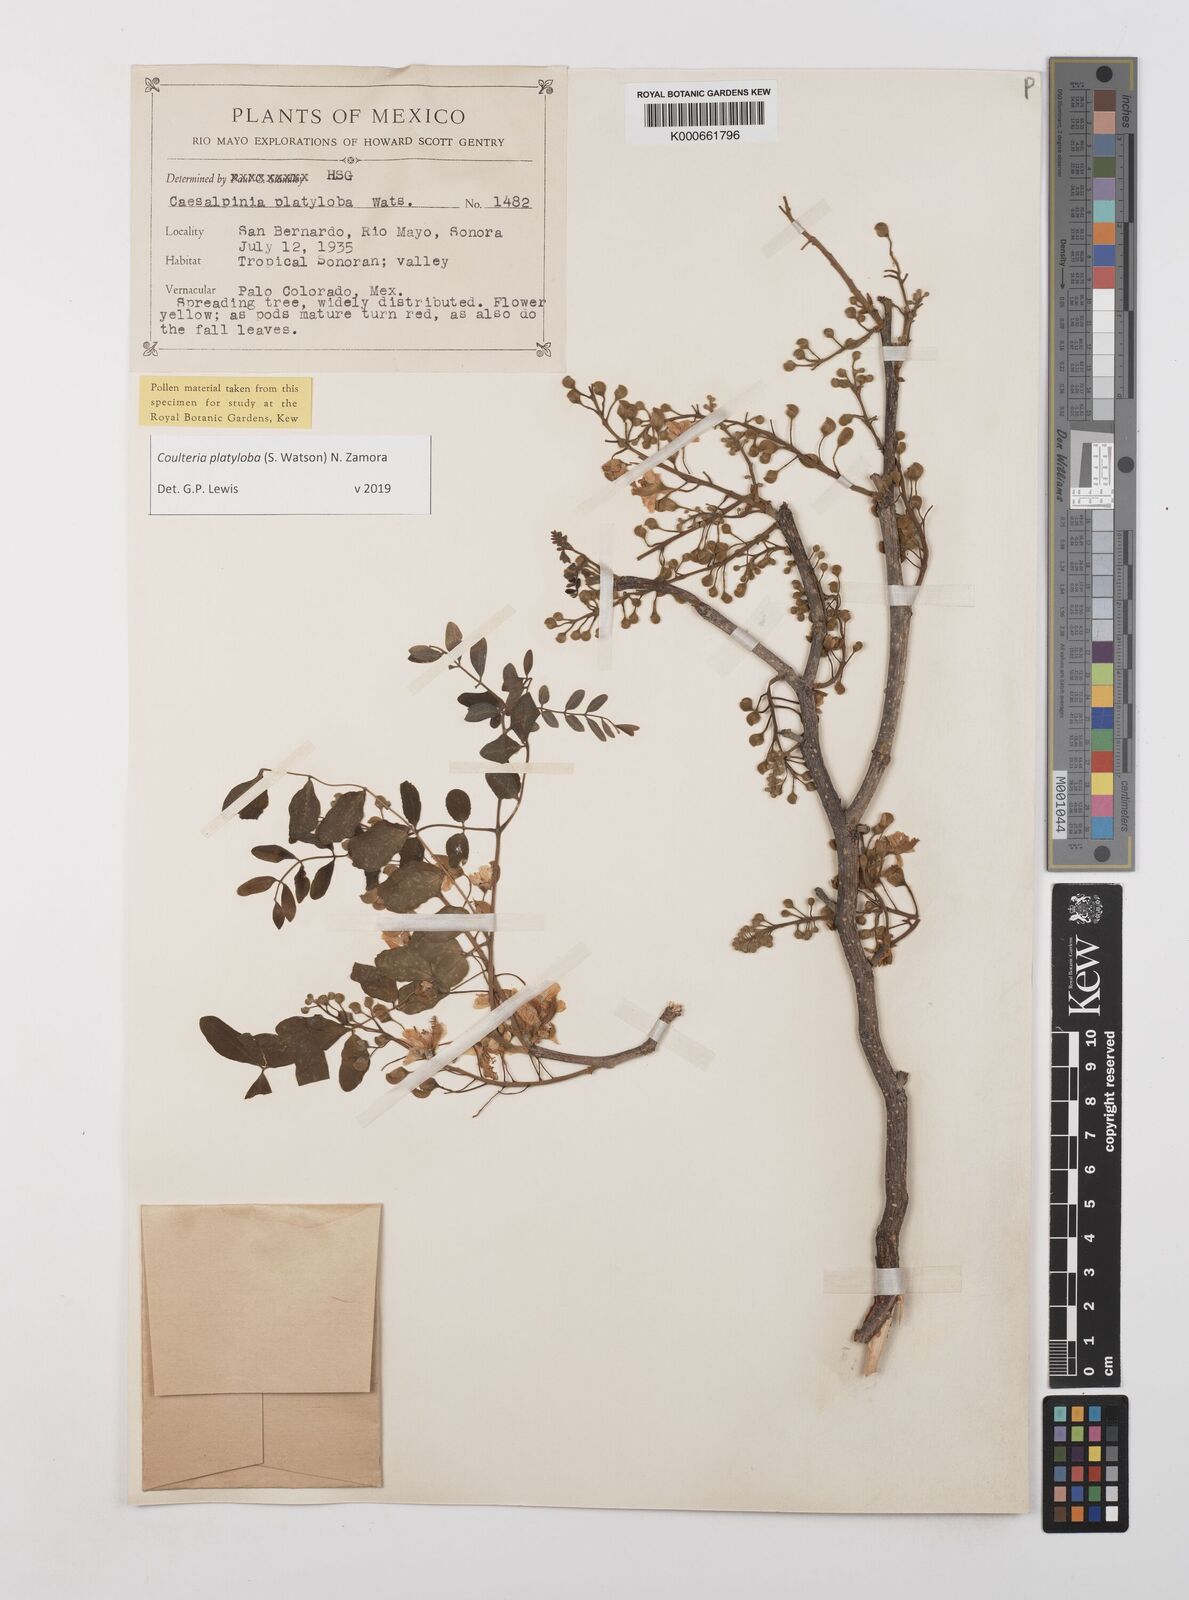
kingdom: Plantae
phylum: Tracheophyta
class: Magnoliopsida
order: Fabales
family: Fabaceae
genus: Coulteria
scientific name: Coulteria platyloba
